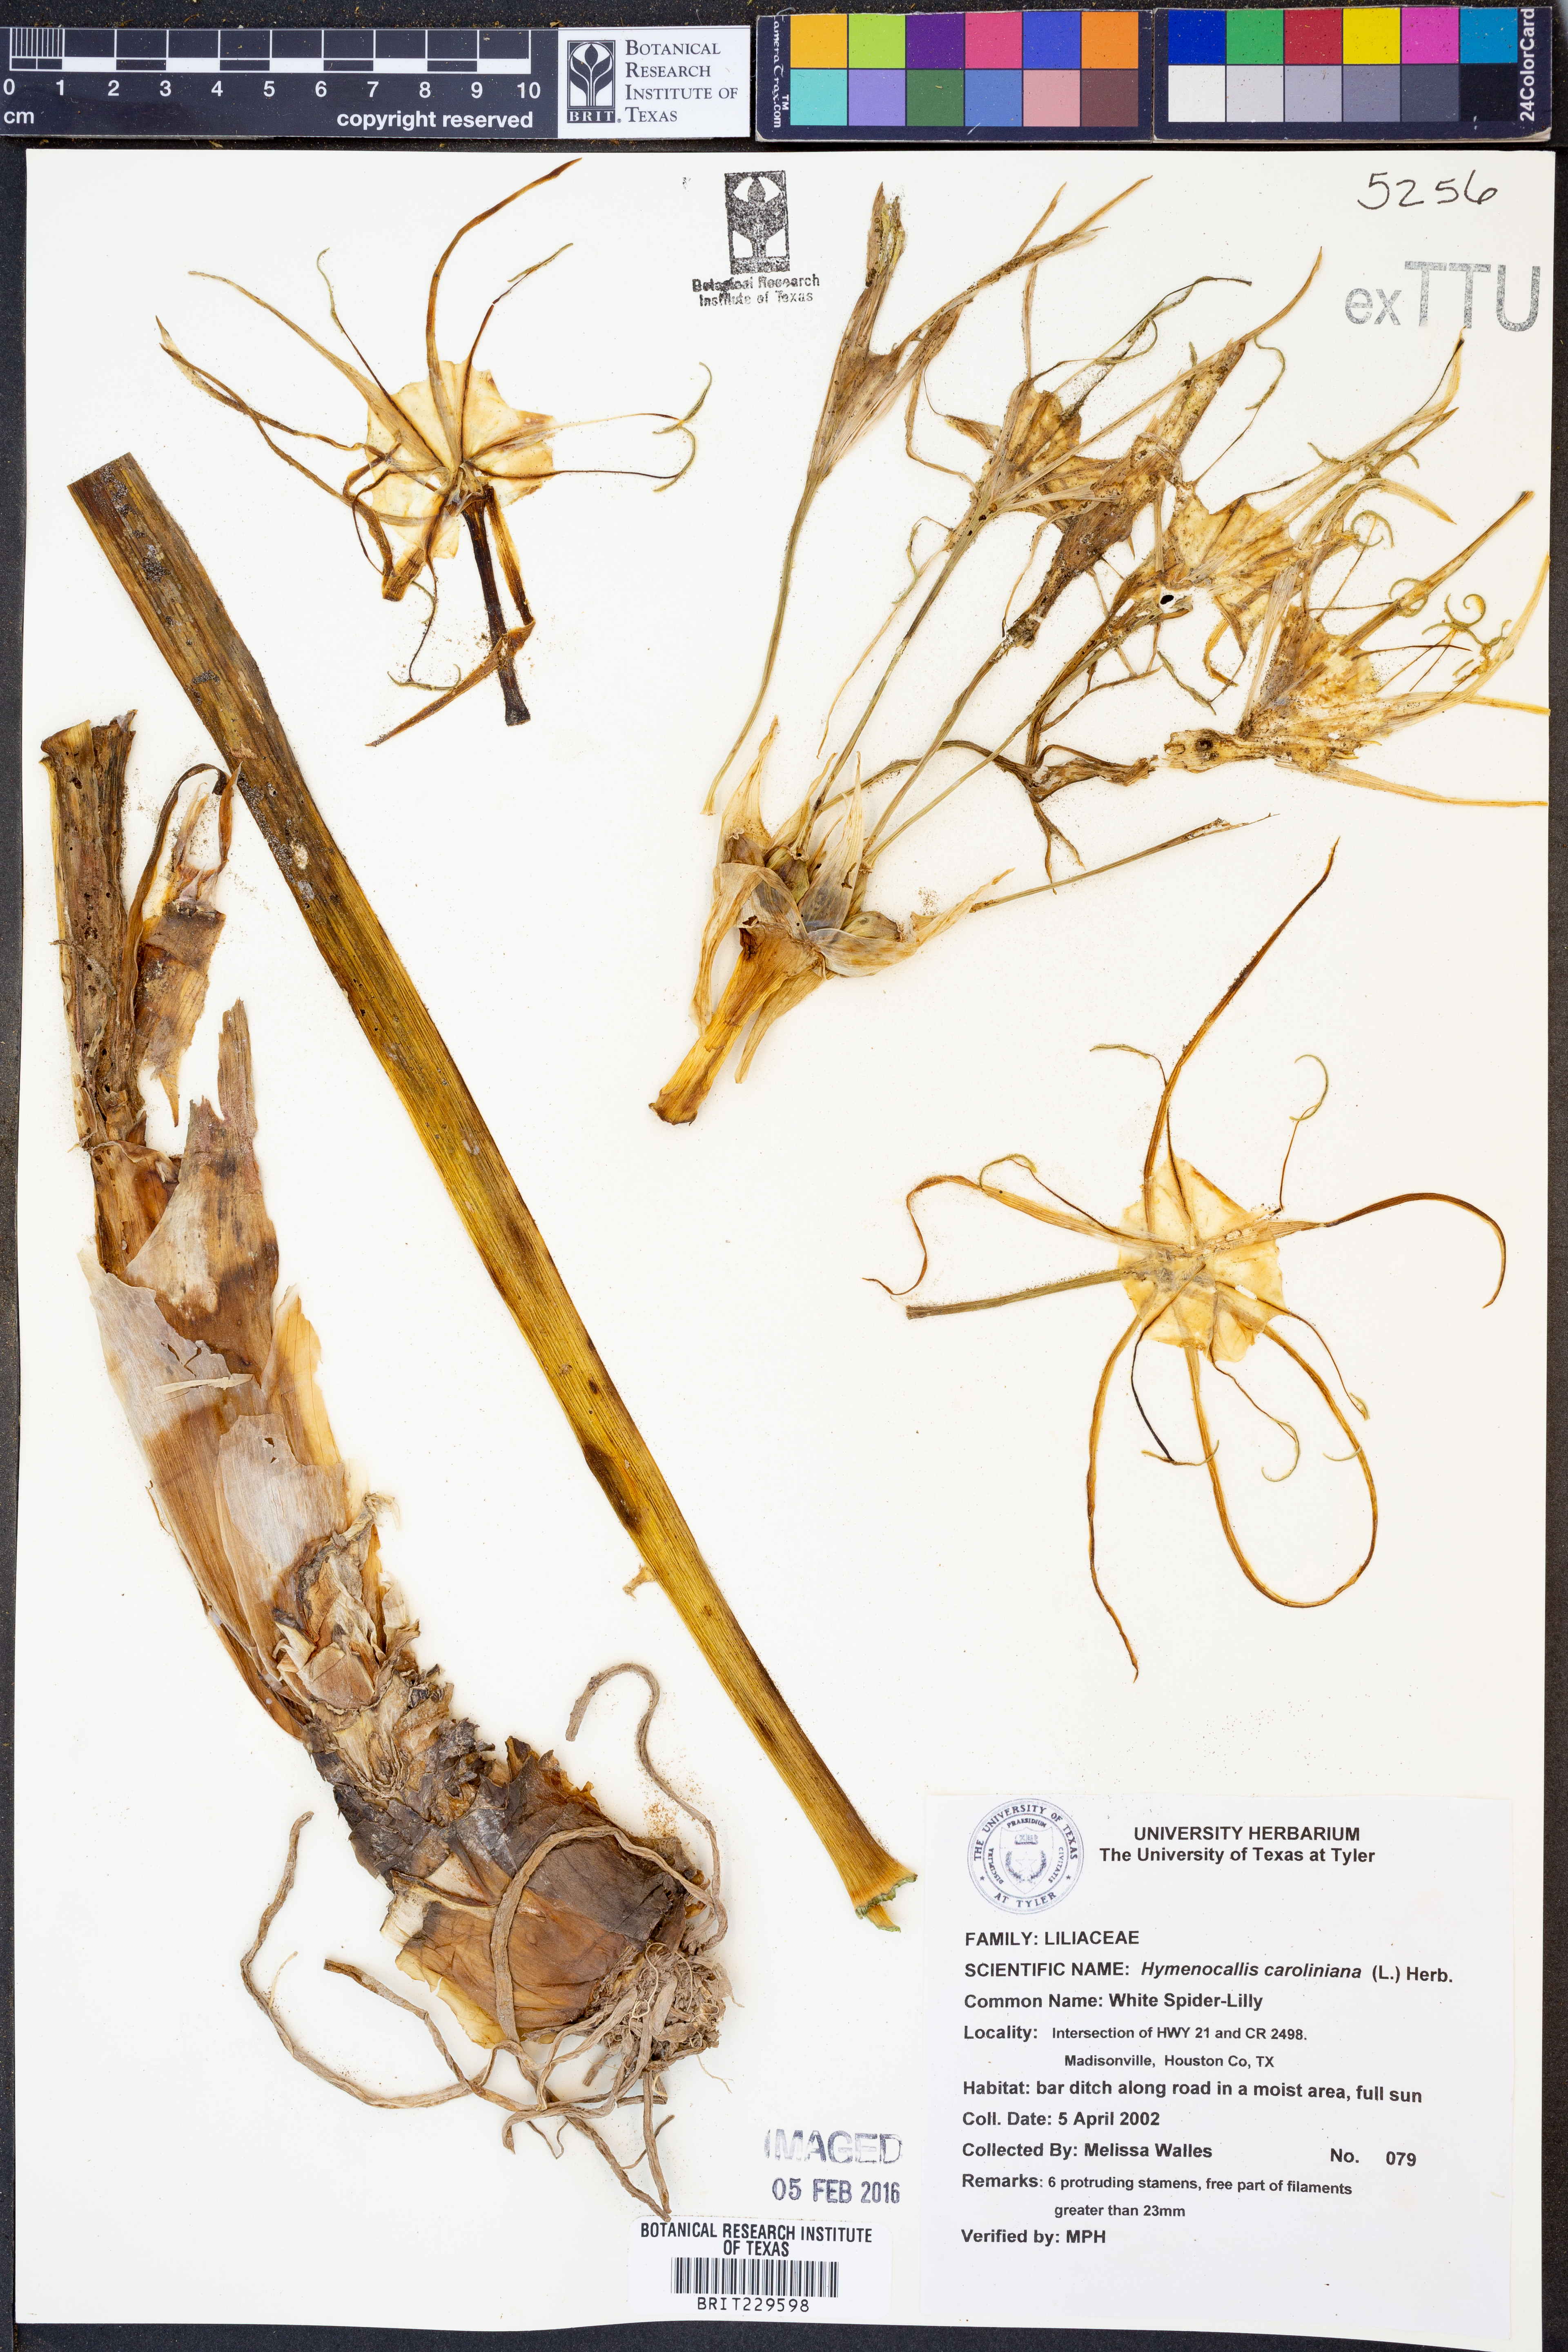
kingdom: Plantae
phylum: Tracheophyta
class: Liliopsida
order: Asparagales
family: Amaryllidaceae
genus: Pancratium
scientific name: Pancratium maritimum
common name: Sea-daffodil
